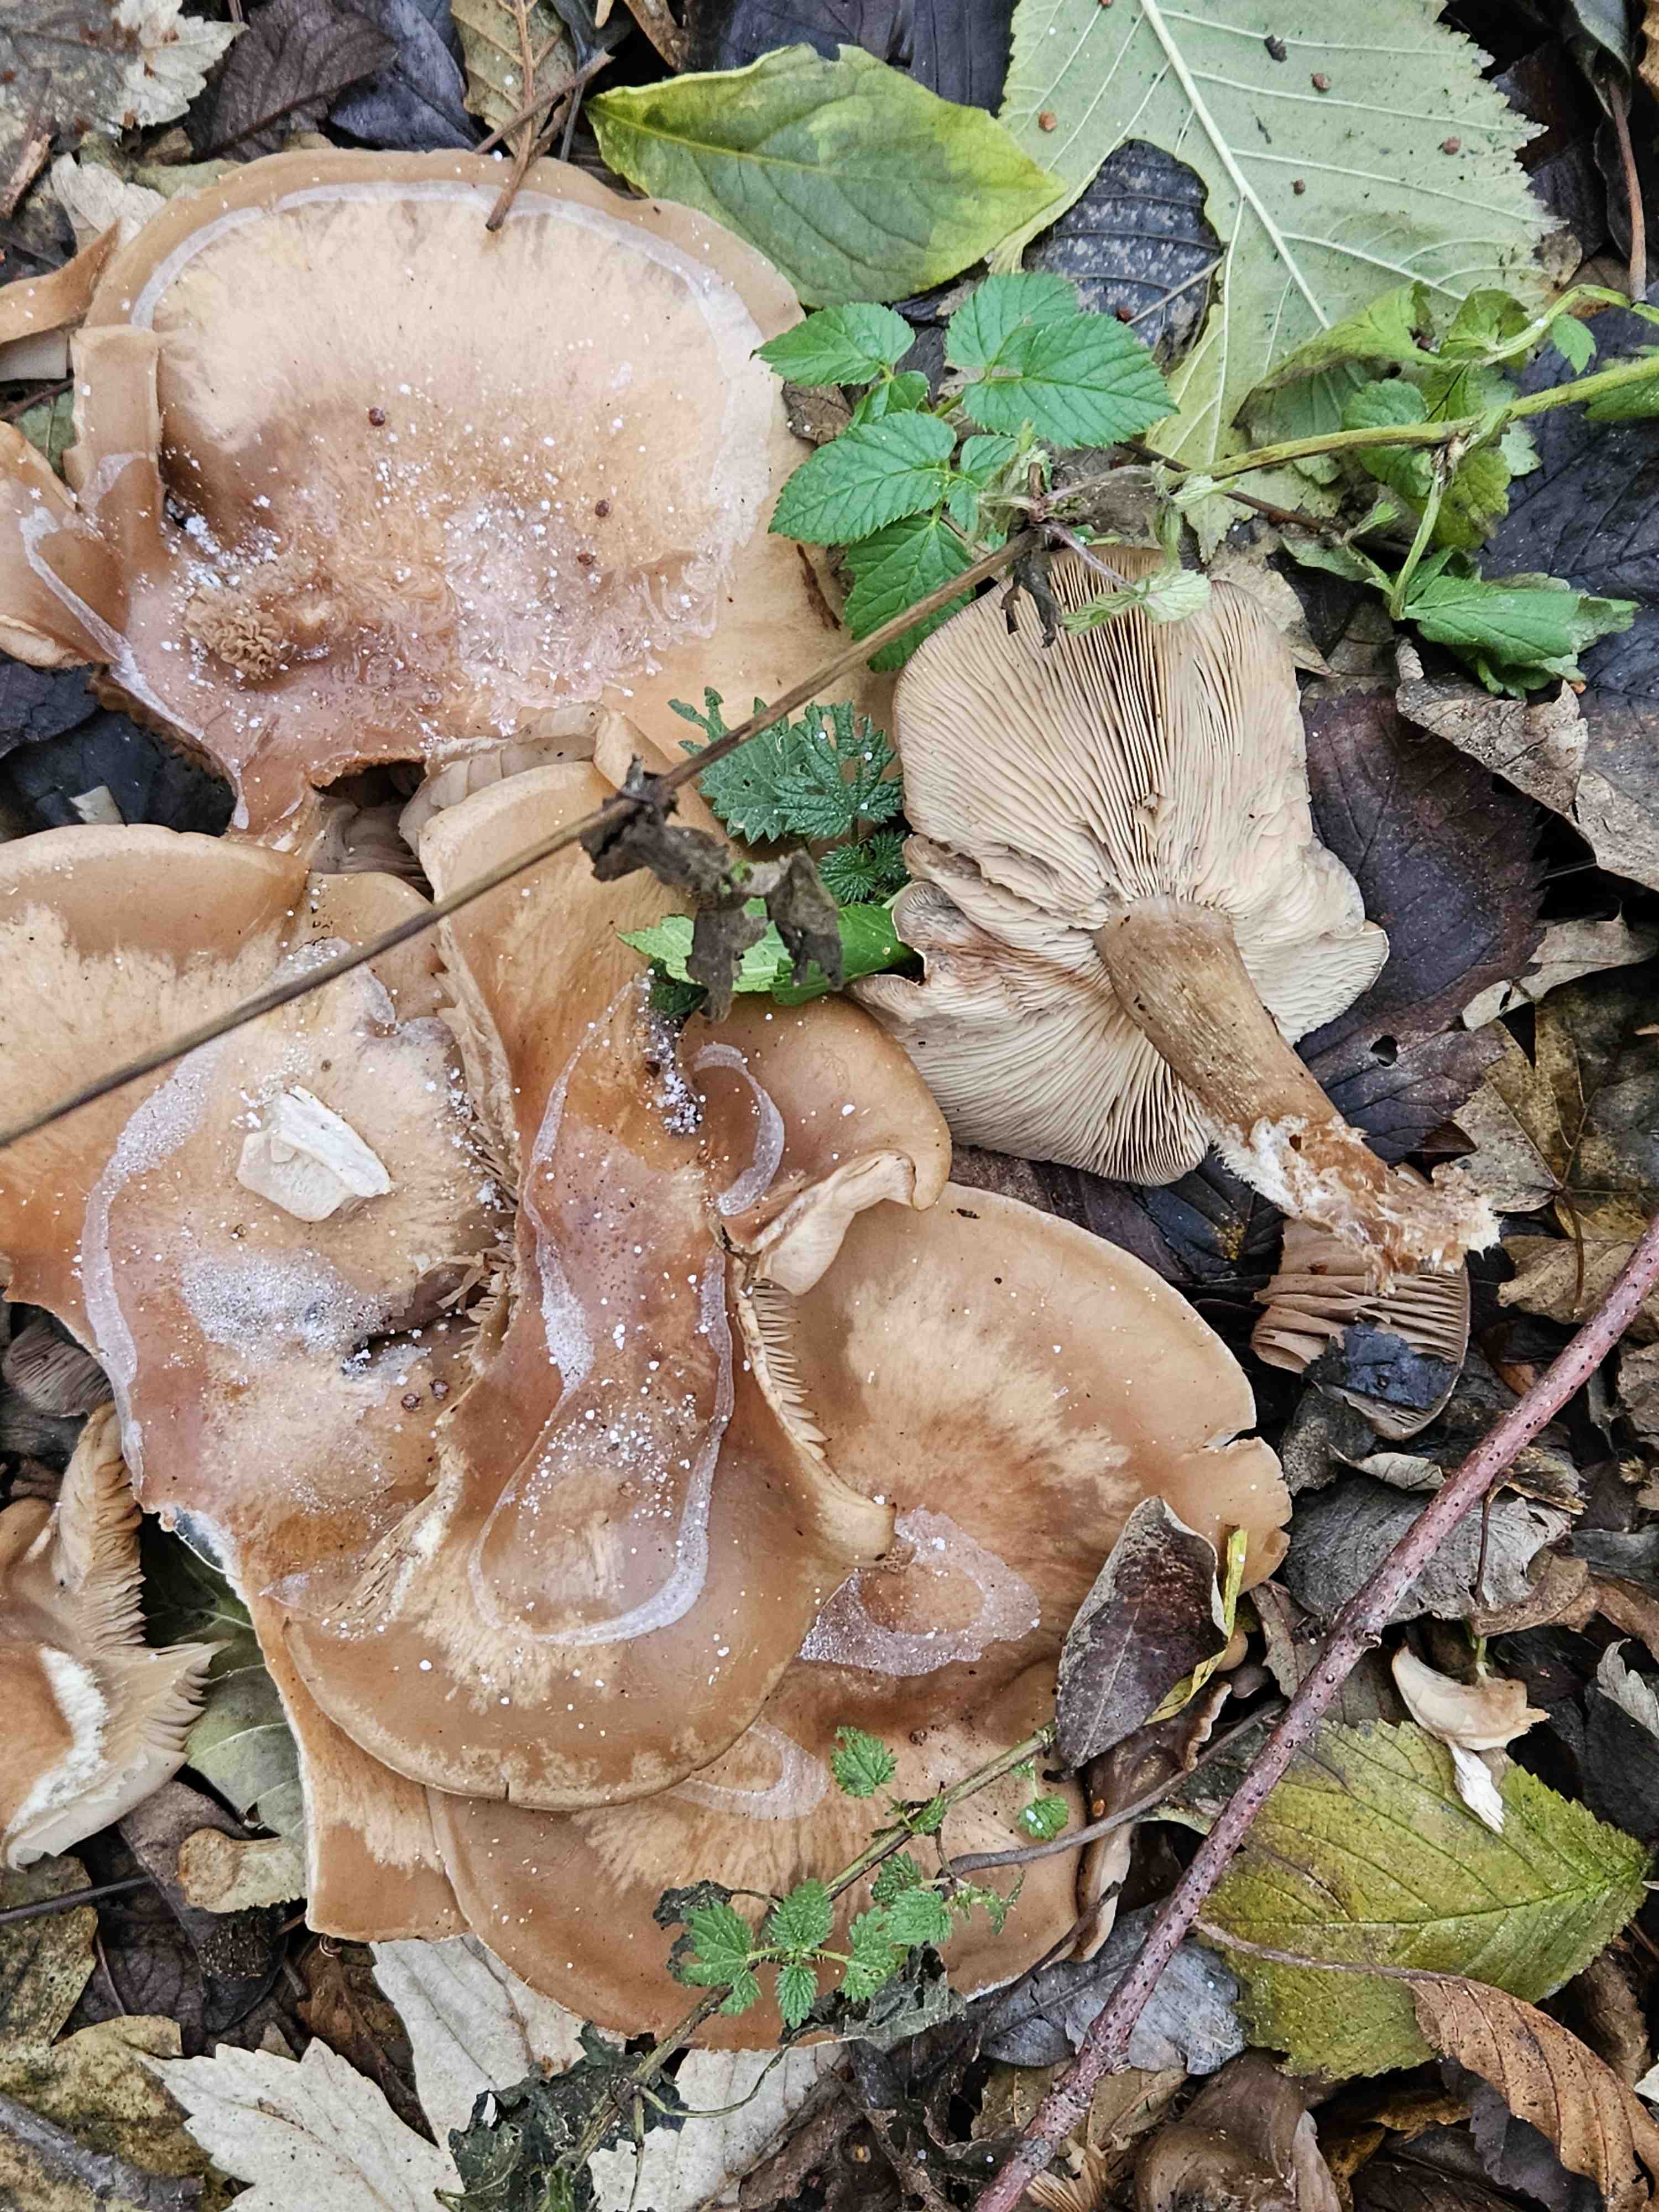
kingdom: Fungi
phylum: Basidiomycota
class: Agaricomycetes
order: Agaricales
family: Tricholomataceae
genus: Lepista
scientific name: Lepista personata
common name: bleg hekseringshat
